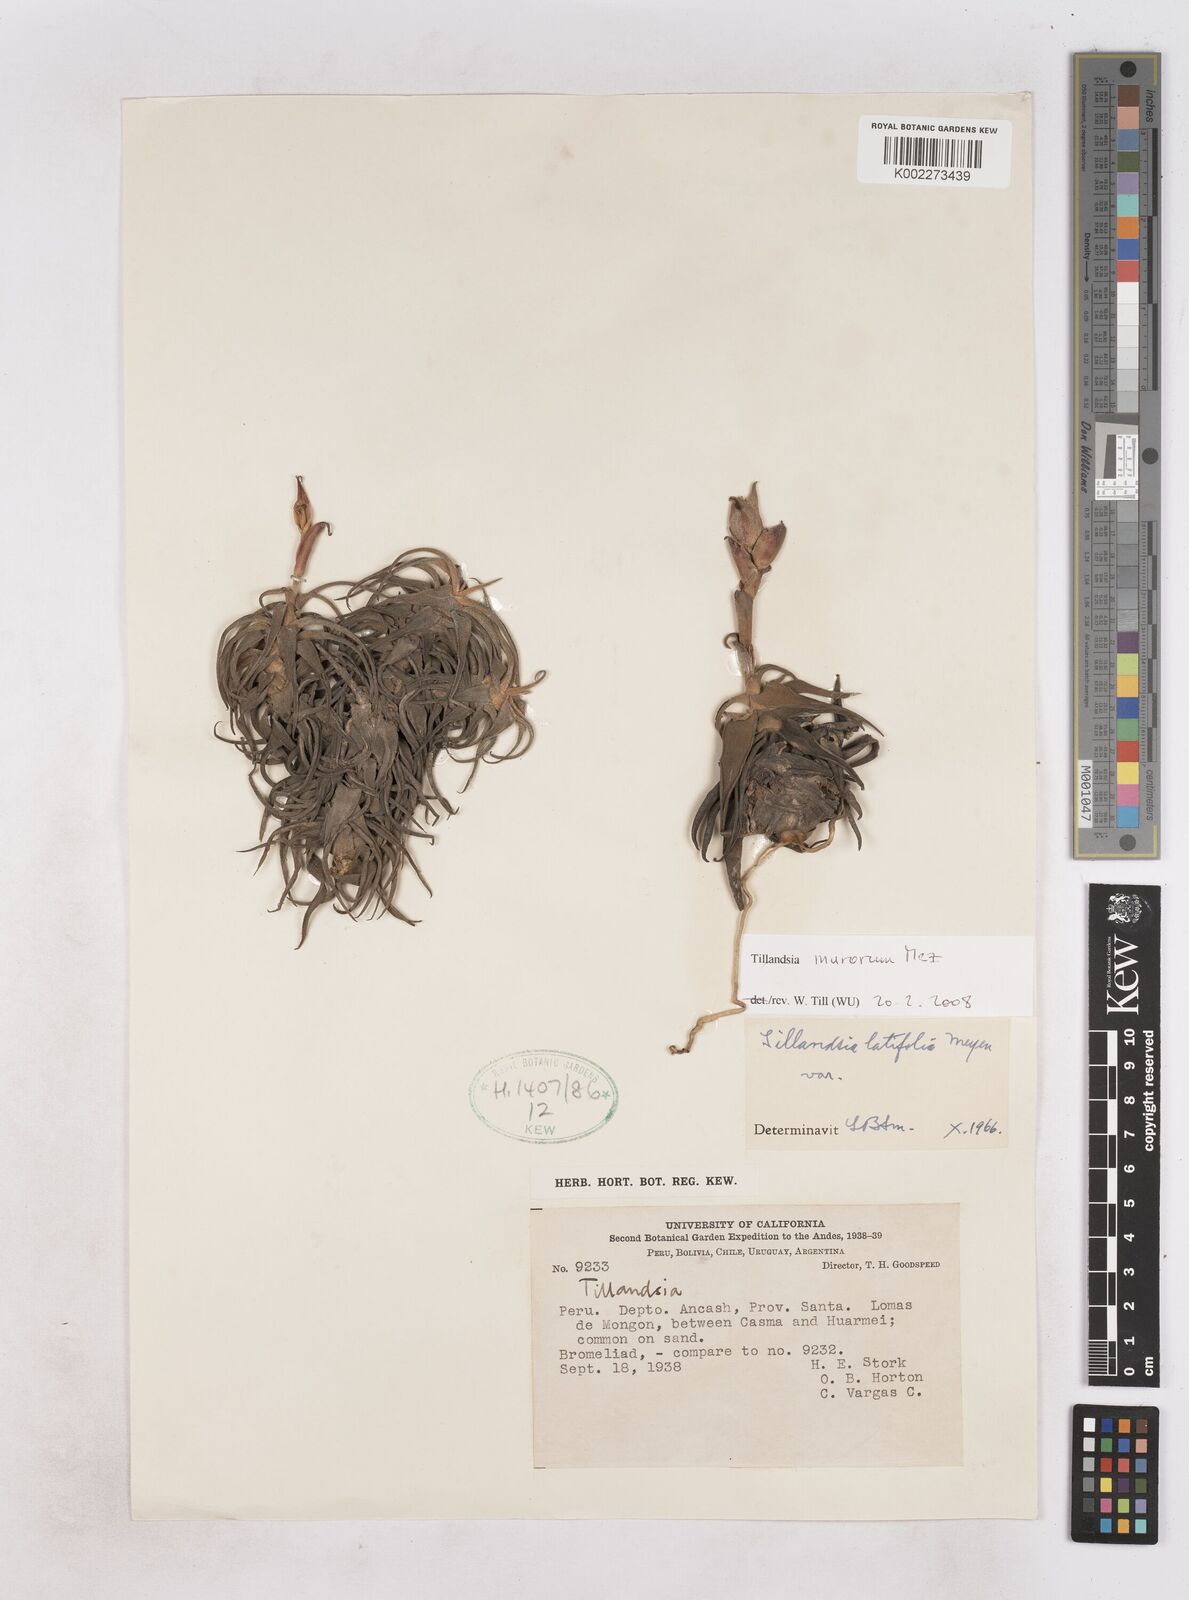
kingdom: Plantae
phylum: Tracheophyta
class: Liliopsida
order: Poales
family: Bromeliaceae
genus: Tillandsia
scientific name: Tillandsia latifolia
